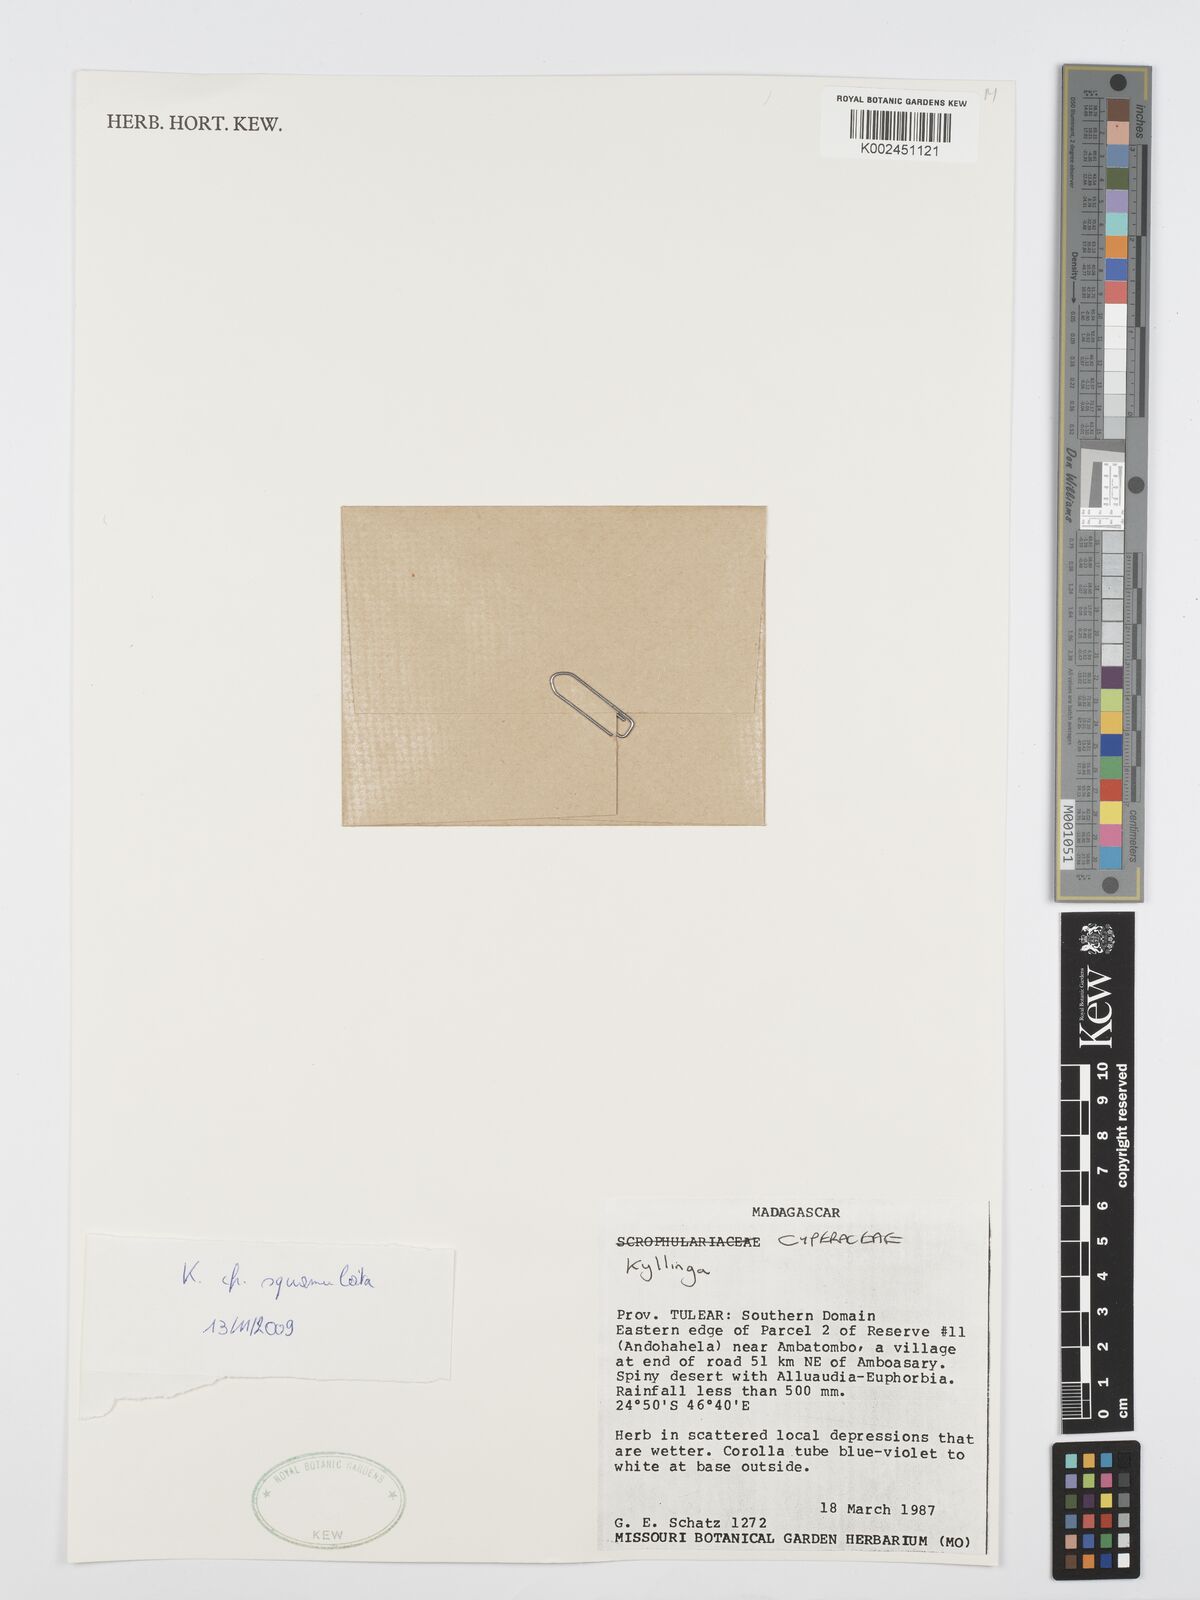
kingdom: Plantae
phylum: Tracheophyta
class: Liliopsida
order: Poales
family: Cyperaceae
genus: Cyperus
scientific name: Cyperus
